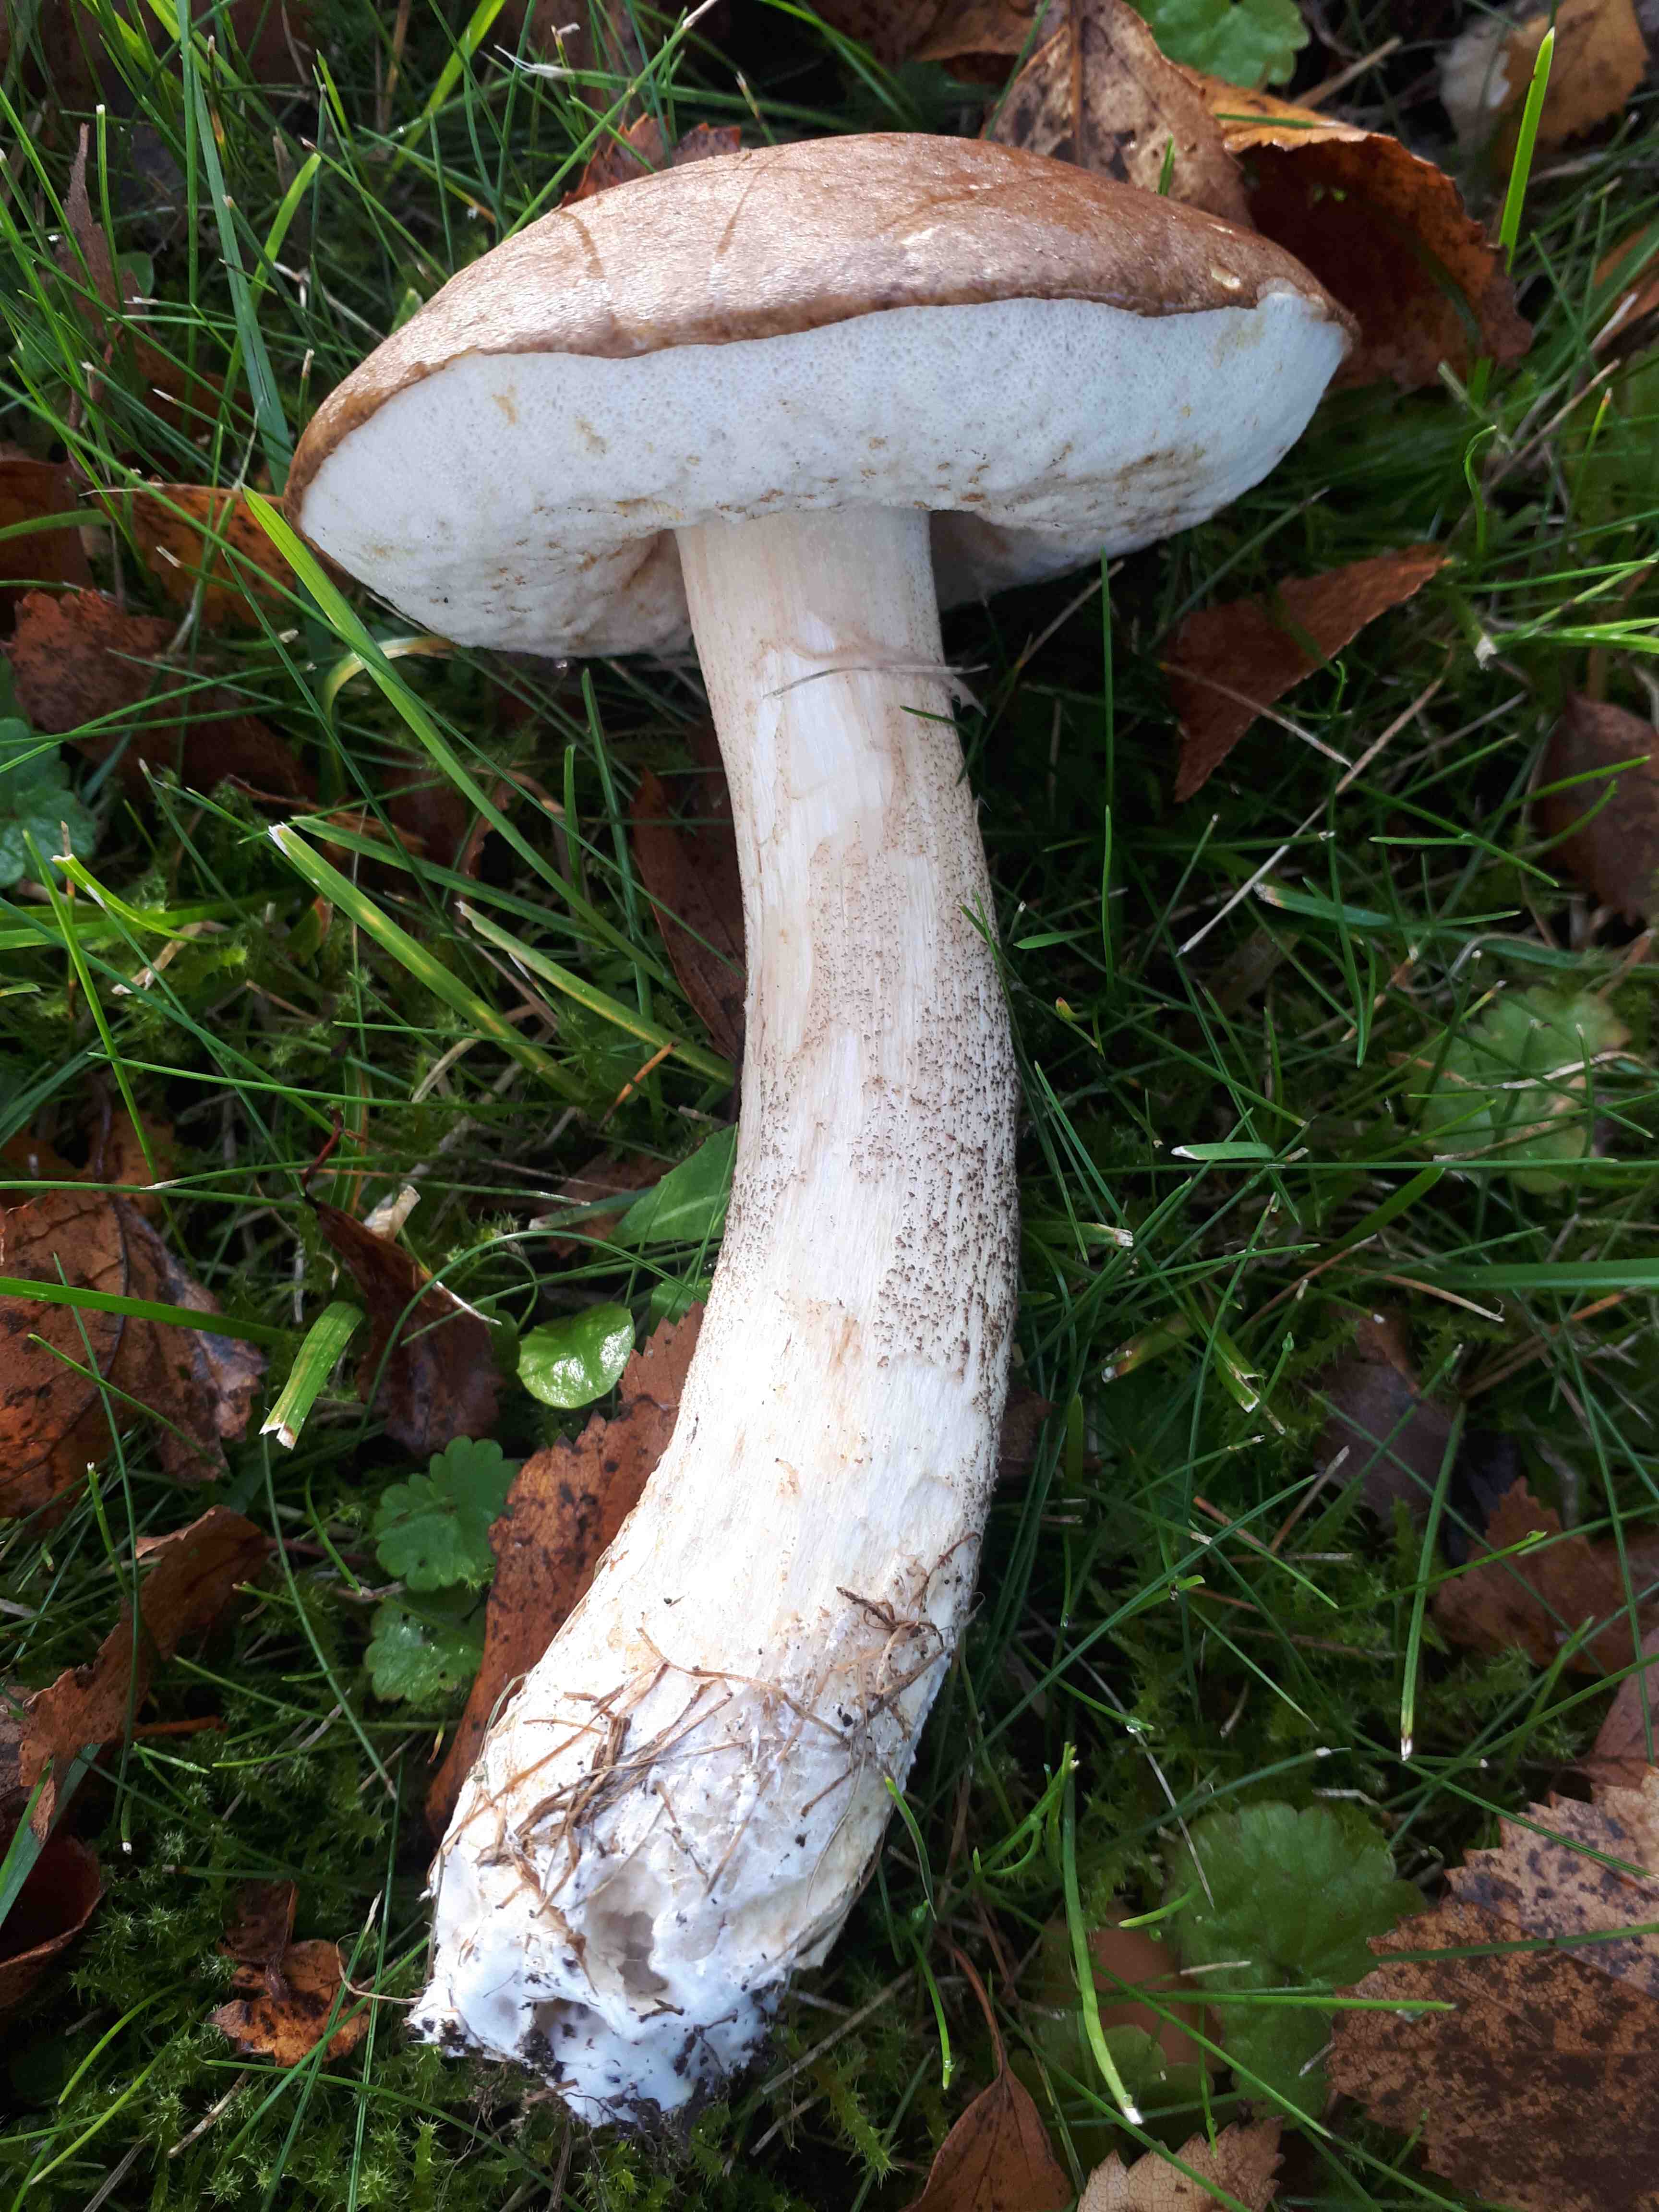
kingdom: Fungi
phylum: Basidiomycota
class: Agaricomycetes
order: Boletales
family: Boletaceae
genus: Leccinum
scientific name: Leccinum scabrum
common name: brun skælrørhat
